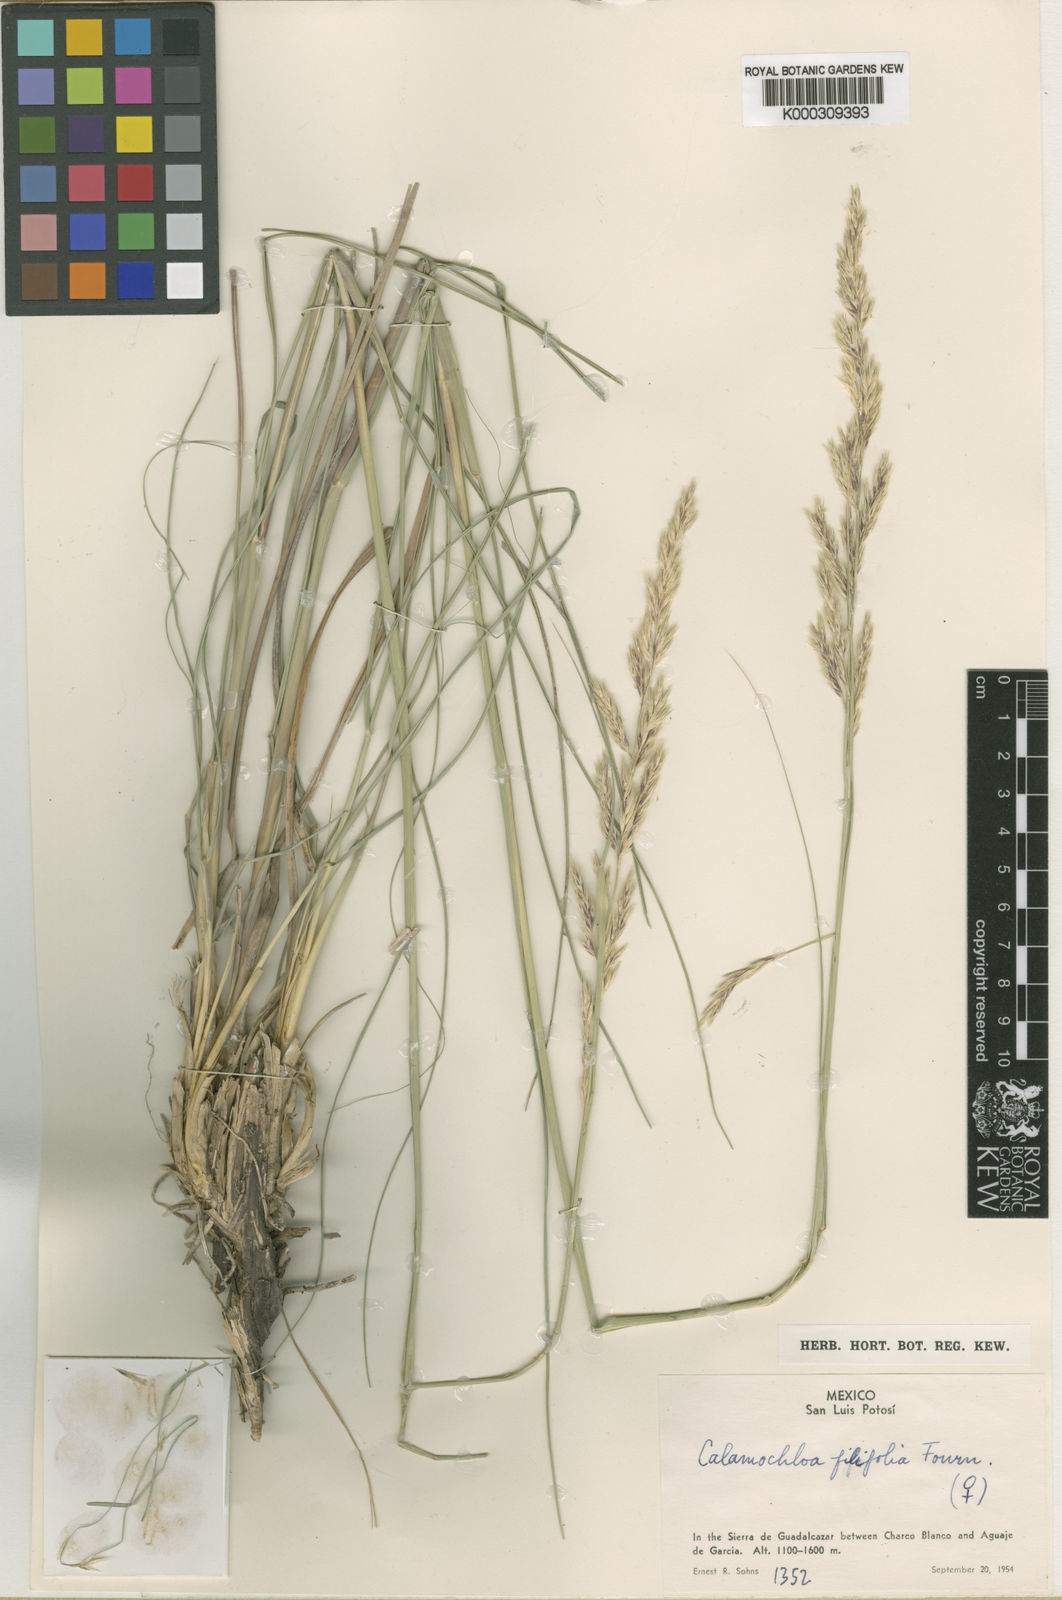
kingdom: Plantae
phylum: Tracheophyta
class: Liliopsida
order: Poales
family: Poaceae
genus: Sohnsia
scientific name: Sohnsia filifolia
